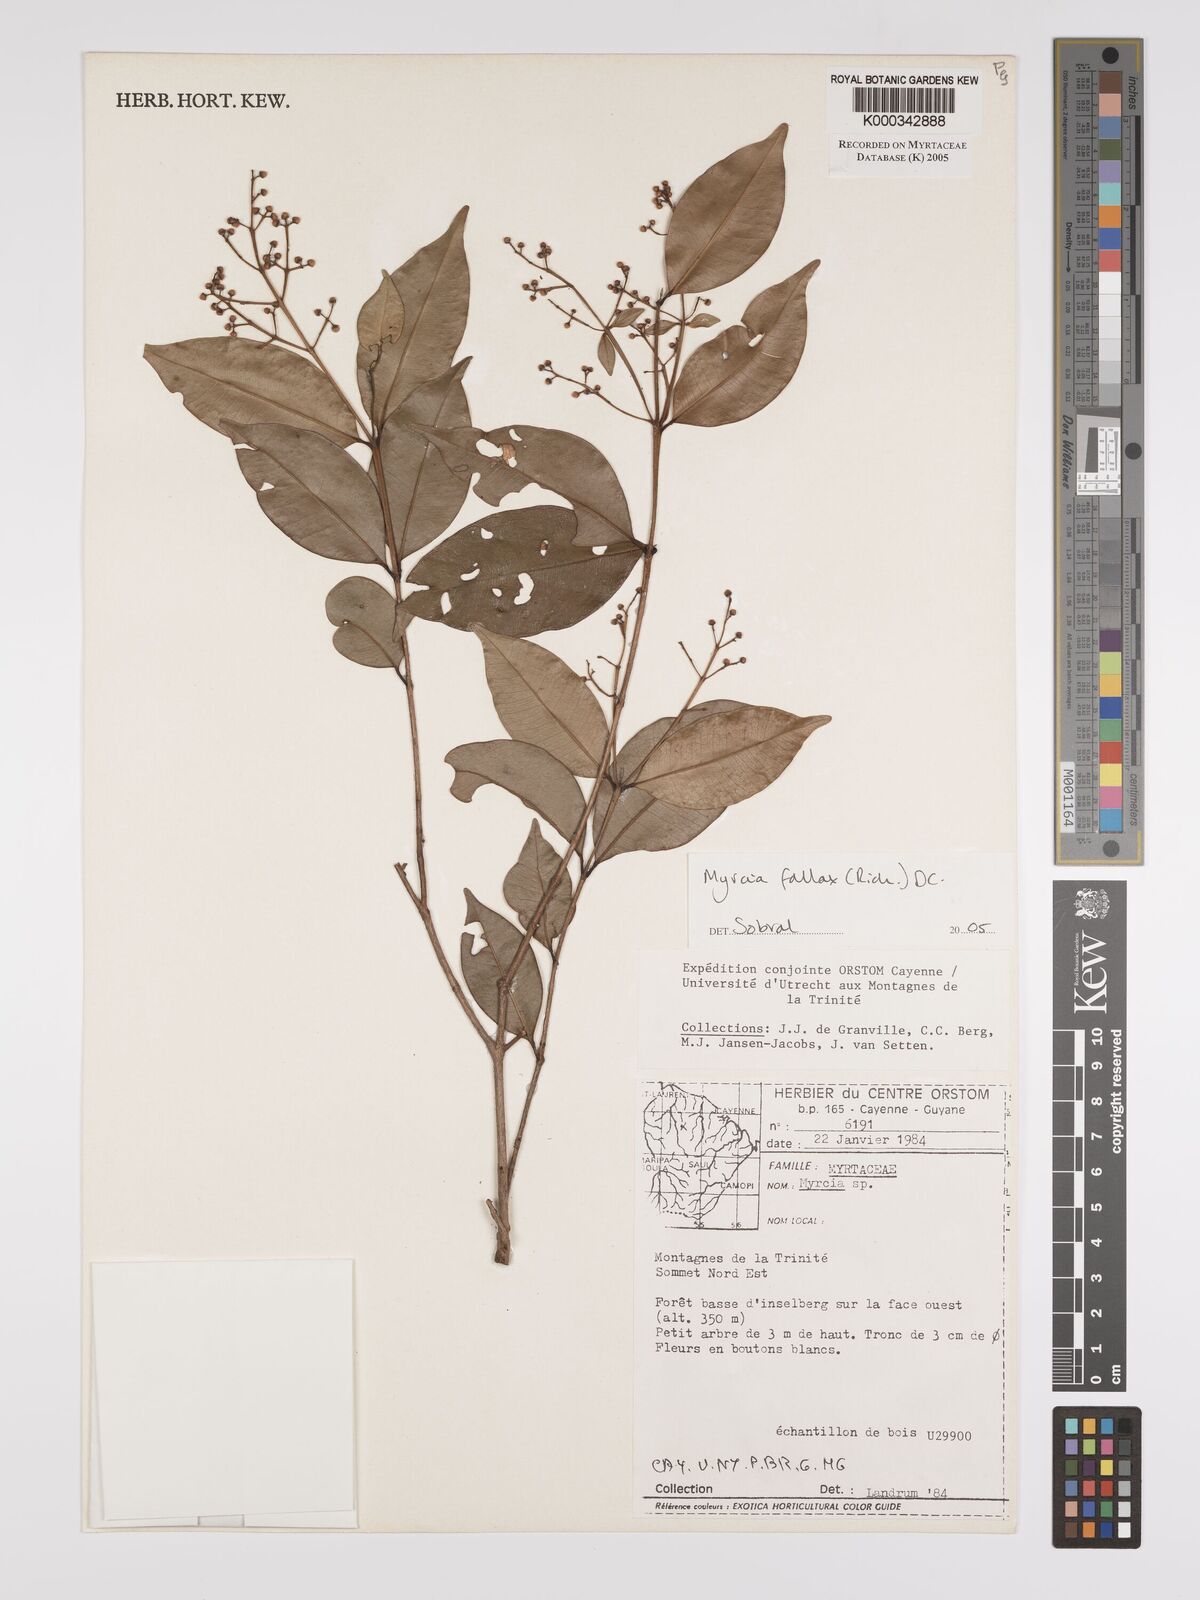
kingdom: Plantae
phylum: Tracheophyta
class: Magnoliopsida
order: Myrtales
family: Myrtaceae
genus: Myrcia
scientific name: Myrcia splendens
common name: Surinam cherry
